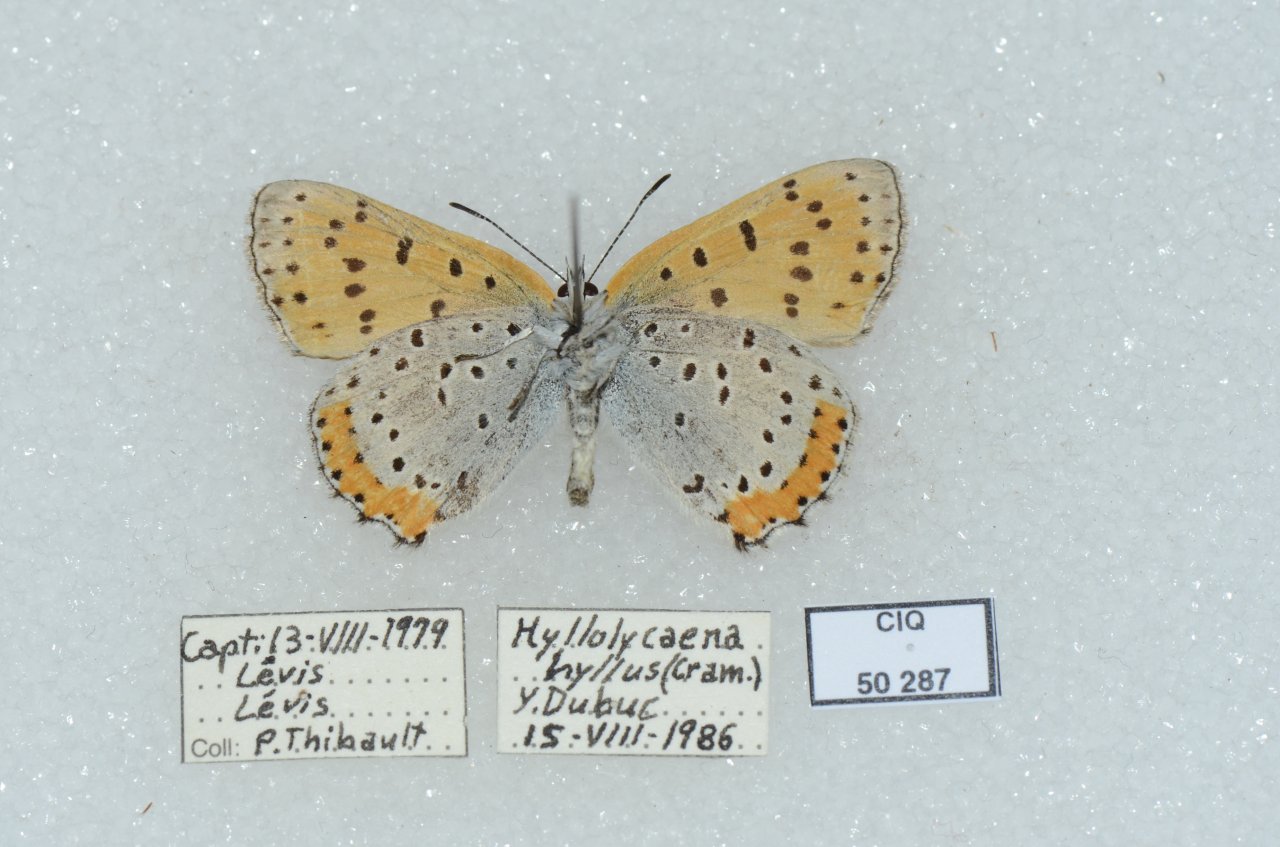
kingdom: Animalia
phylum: Arthropoda
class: Insecta
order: Lepidoptera
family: Sesiidae
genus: Sesia
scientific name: Sesia Lycaena hyllus
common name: Bronze Copper
